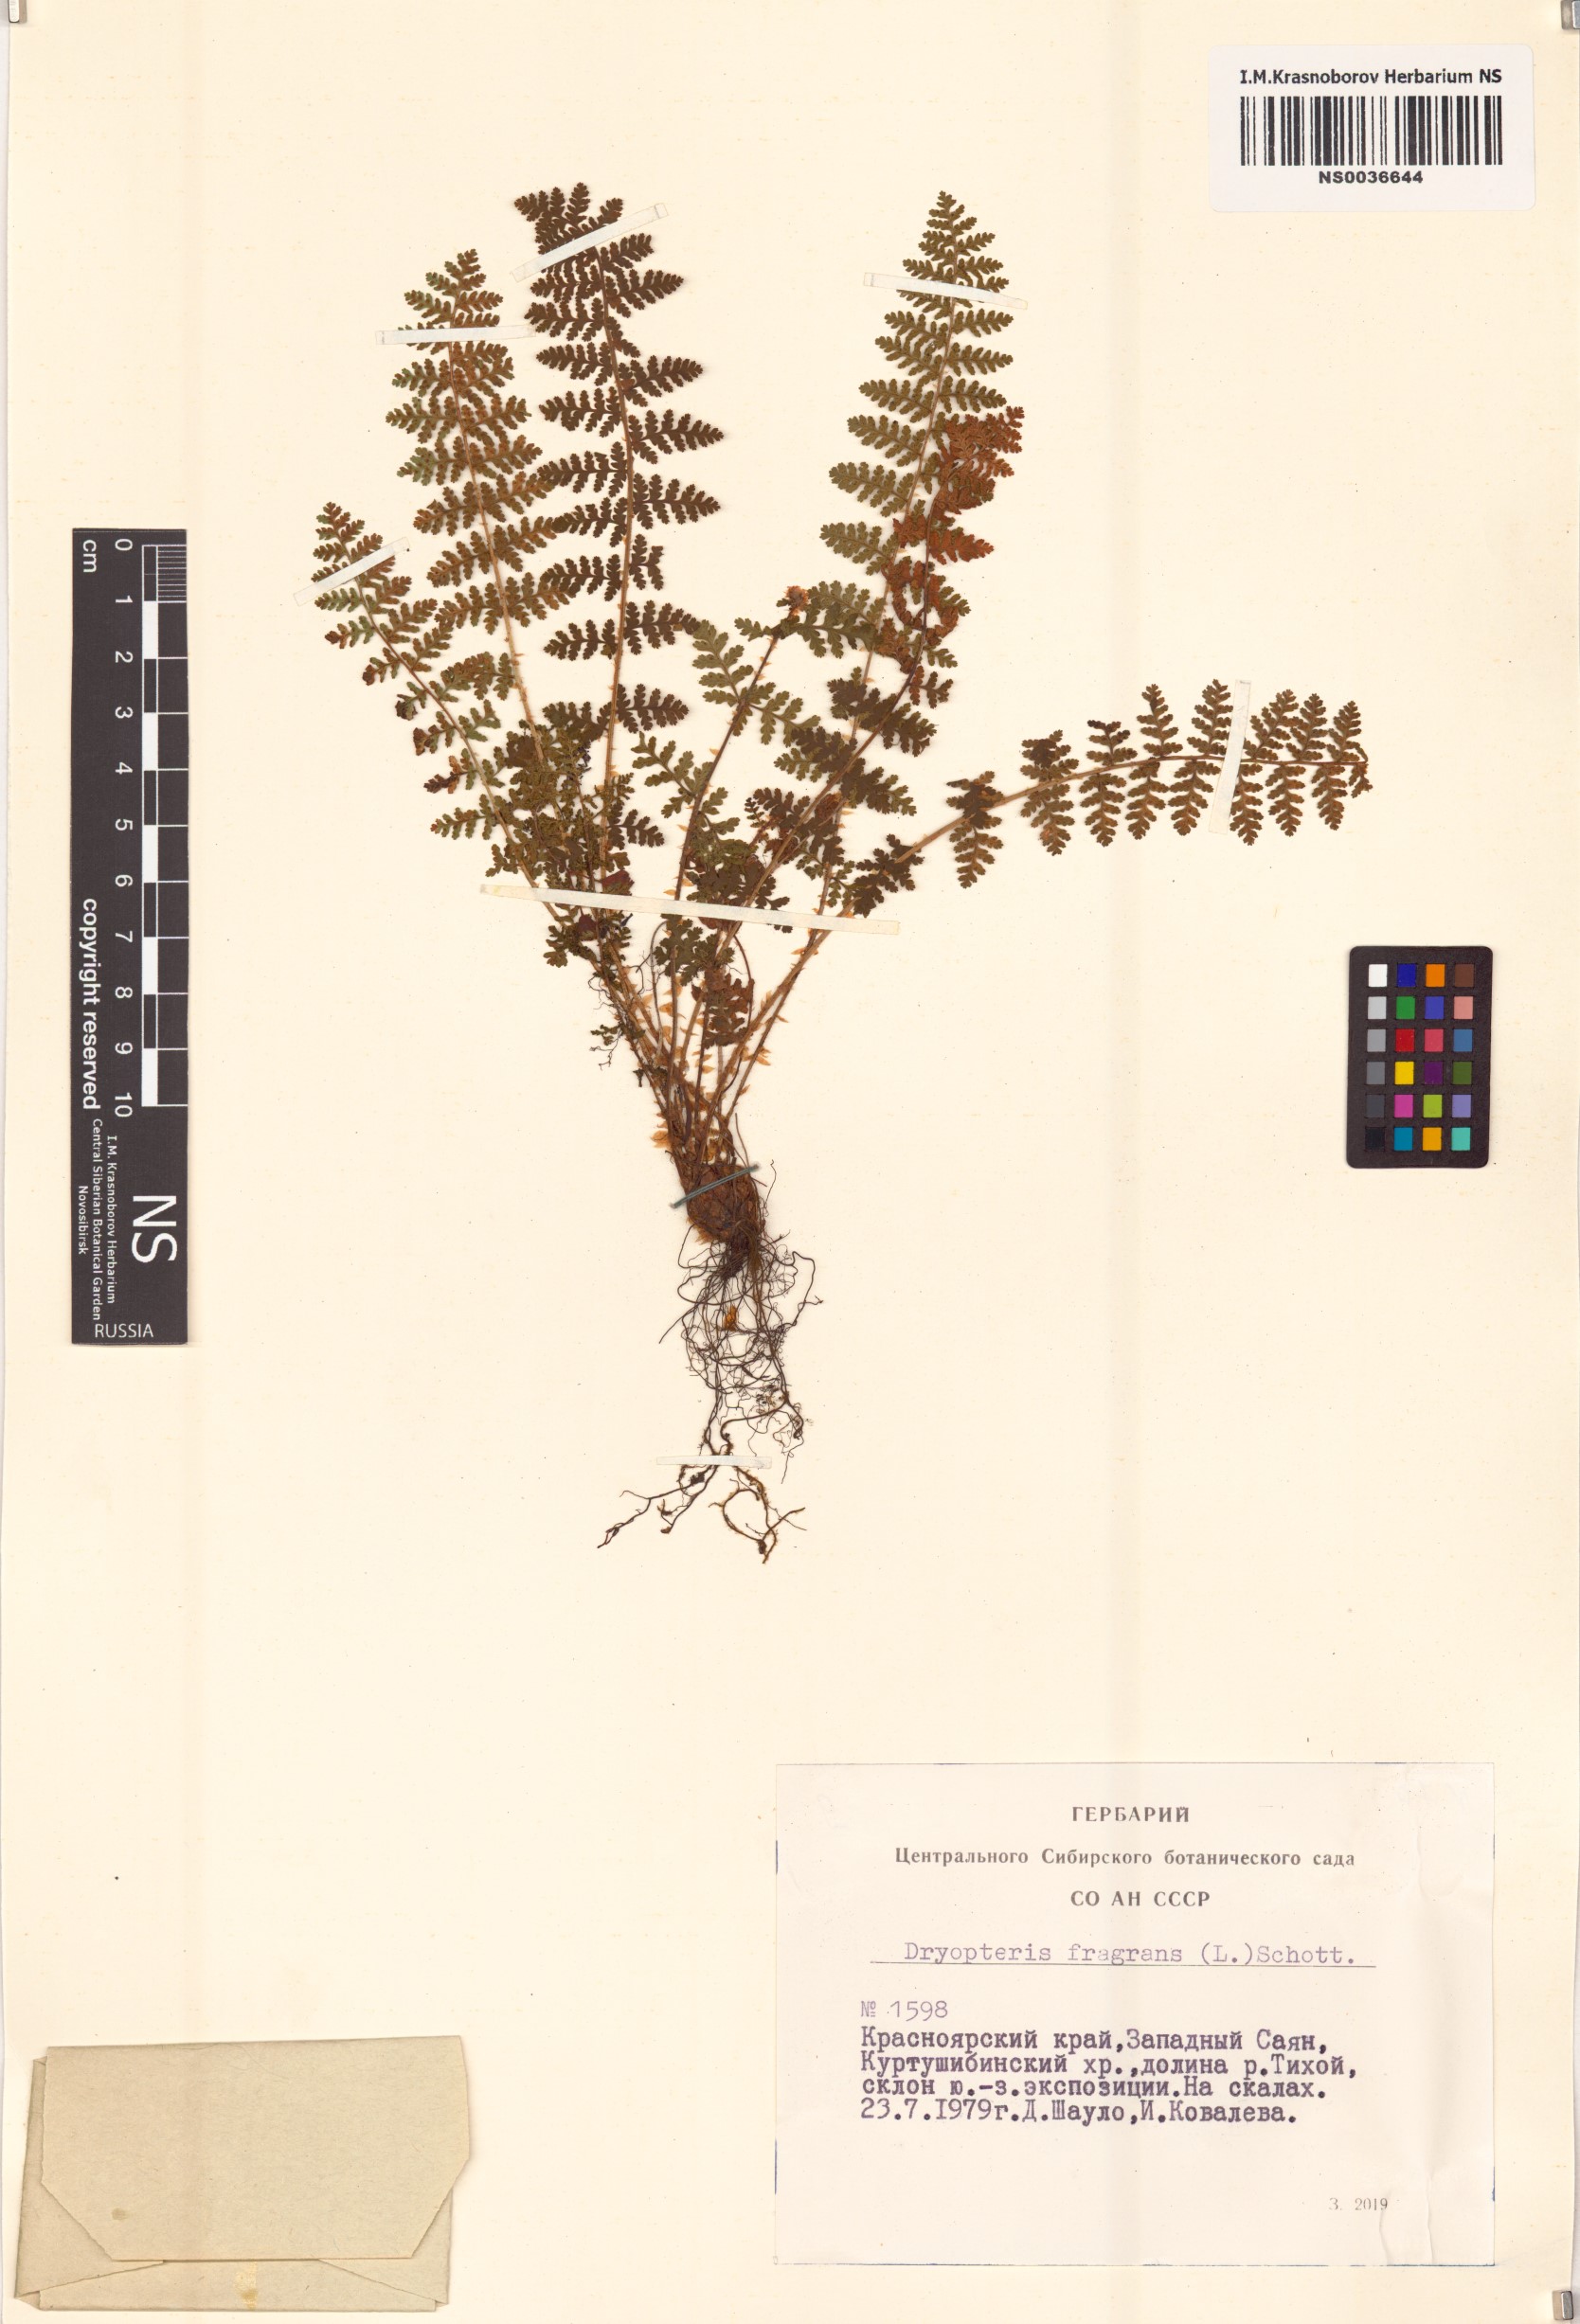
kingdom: Plantae
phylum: Tracheophyta
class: Polypodiopsida
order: Polypodiales
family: Dryopteridaceae
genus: Dryopteris
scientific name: Dryopteris fragrans
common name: Fragrant wood fern
